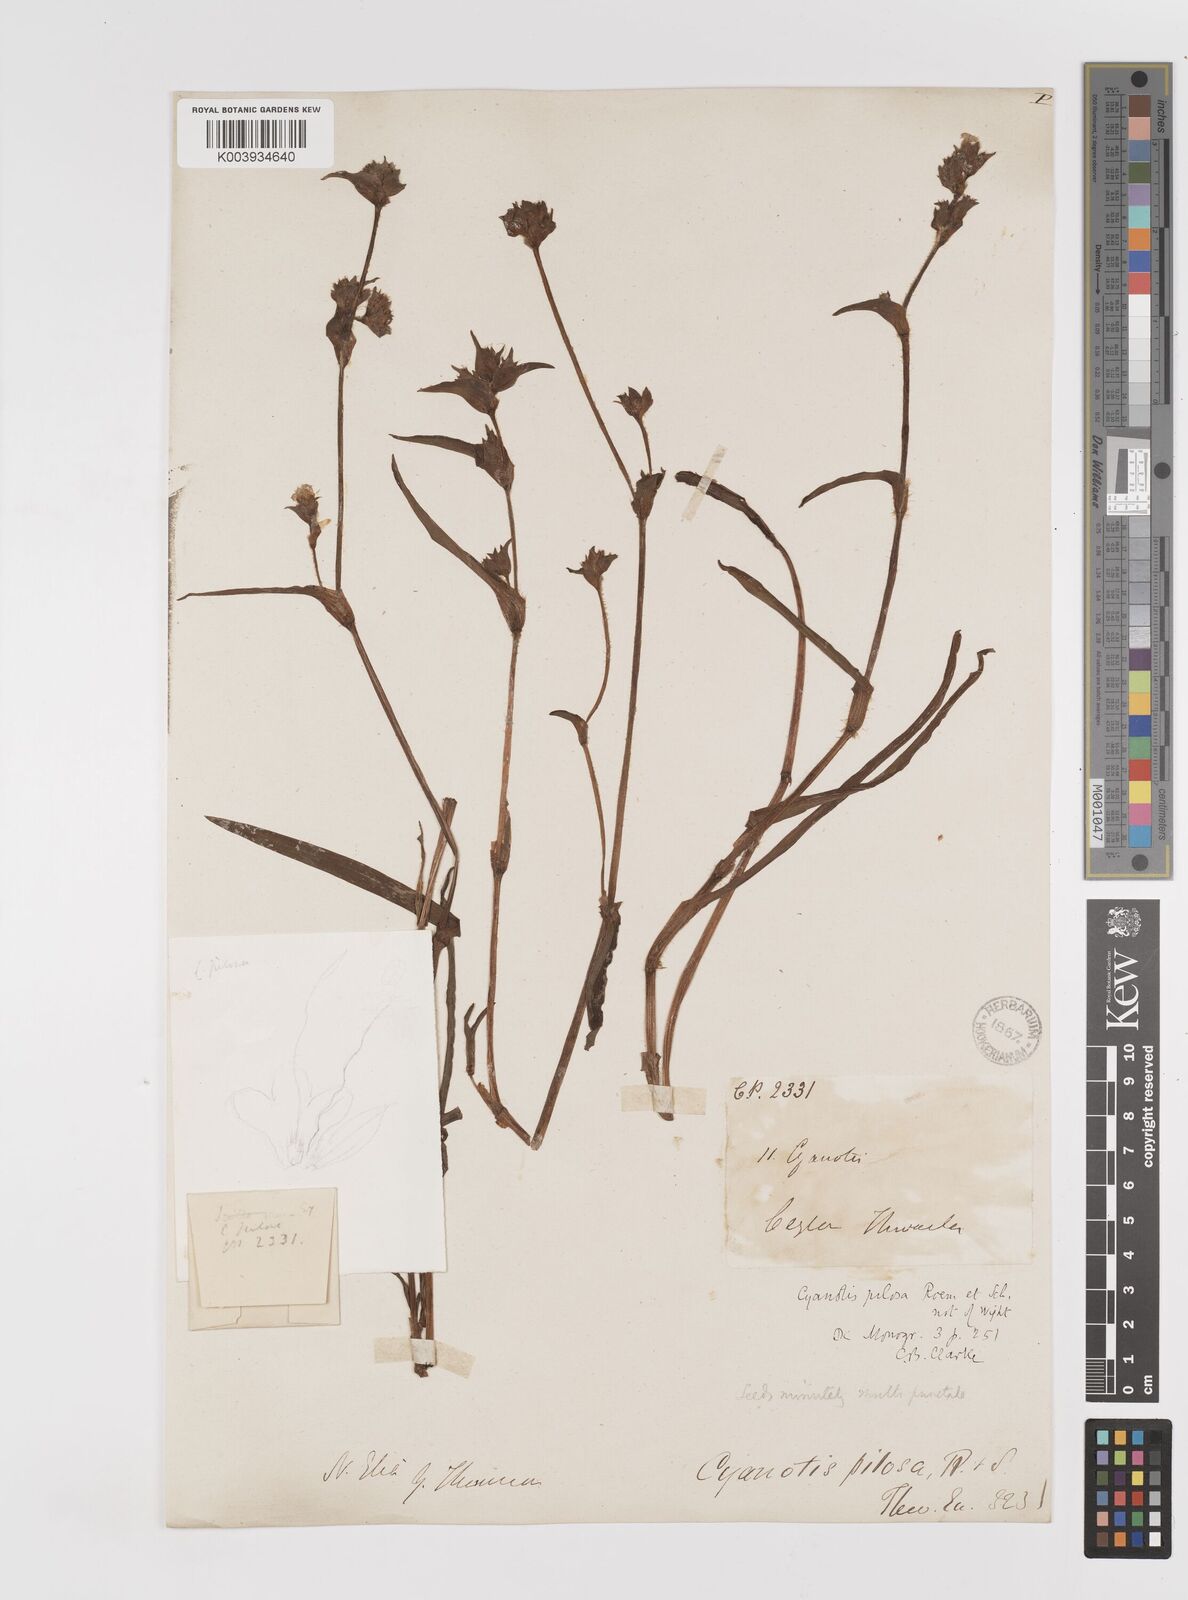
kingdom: Plantae
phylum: Tracheophyta
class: Liliopsida
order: Commelinales
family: Commelinaceae
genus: Cyanotis
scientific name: Cyanotis pilosa
